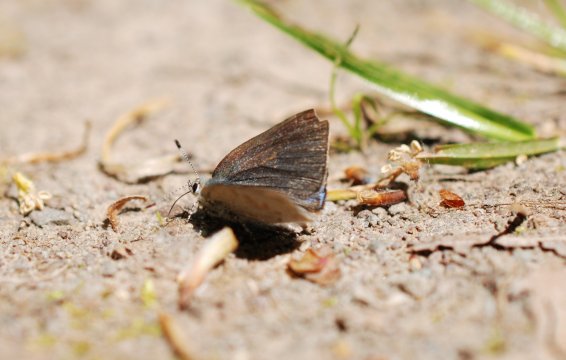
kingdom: Animalia
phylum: Arthropoda
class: Insecta
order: Lepidoptera
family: Lycaenidae
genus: Erora
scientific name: Erora laeta
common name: Early Hairstreak
